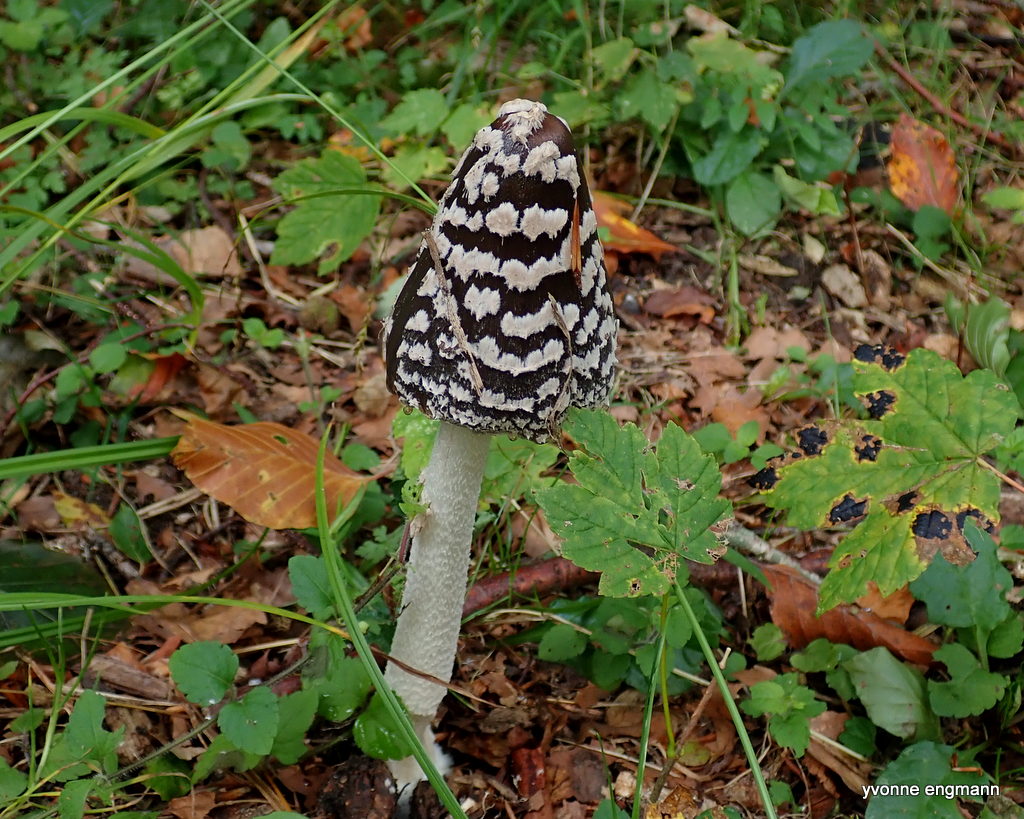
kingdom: Fungi
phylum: Basidiomycota
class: Agaricomycetes
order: Agaricales
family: Psathyrellaceae
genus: Coprinopsis
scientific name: Coprinopsis picacea
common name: skade-blækhat
